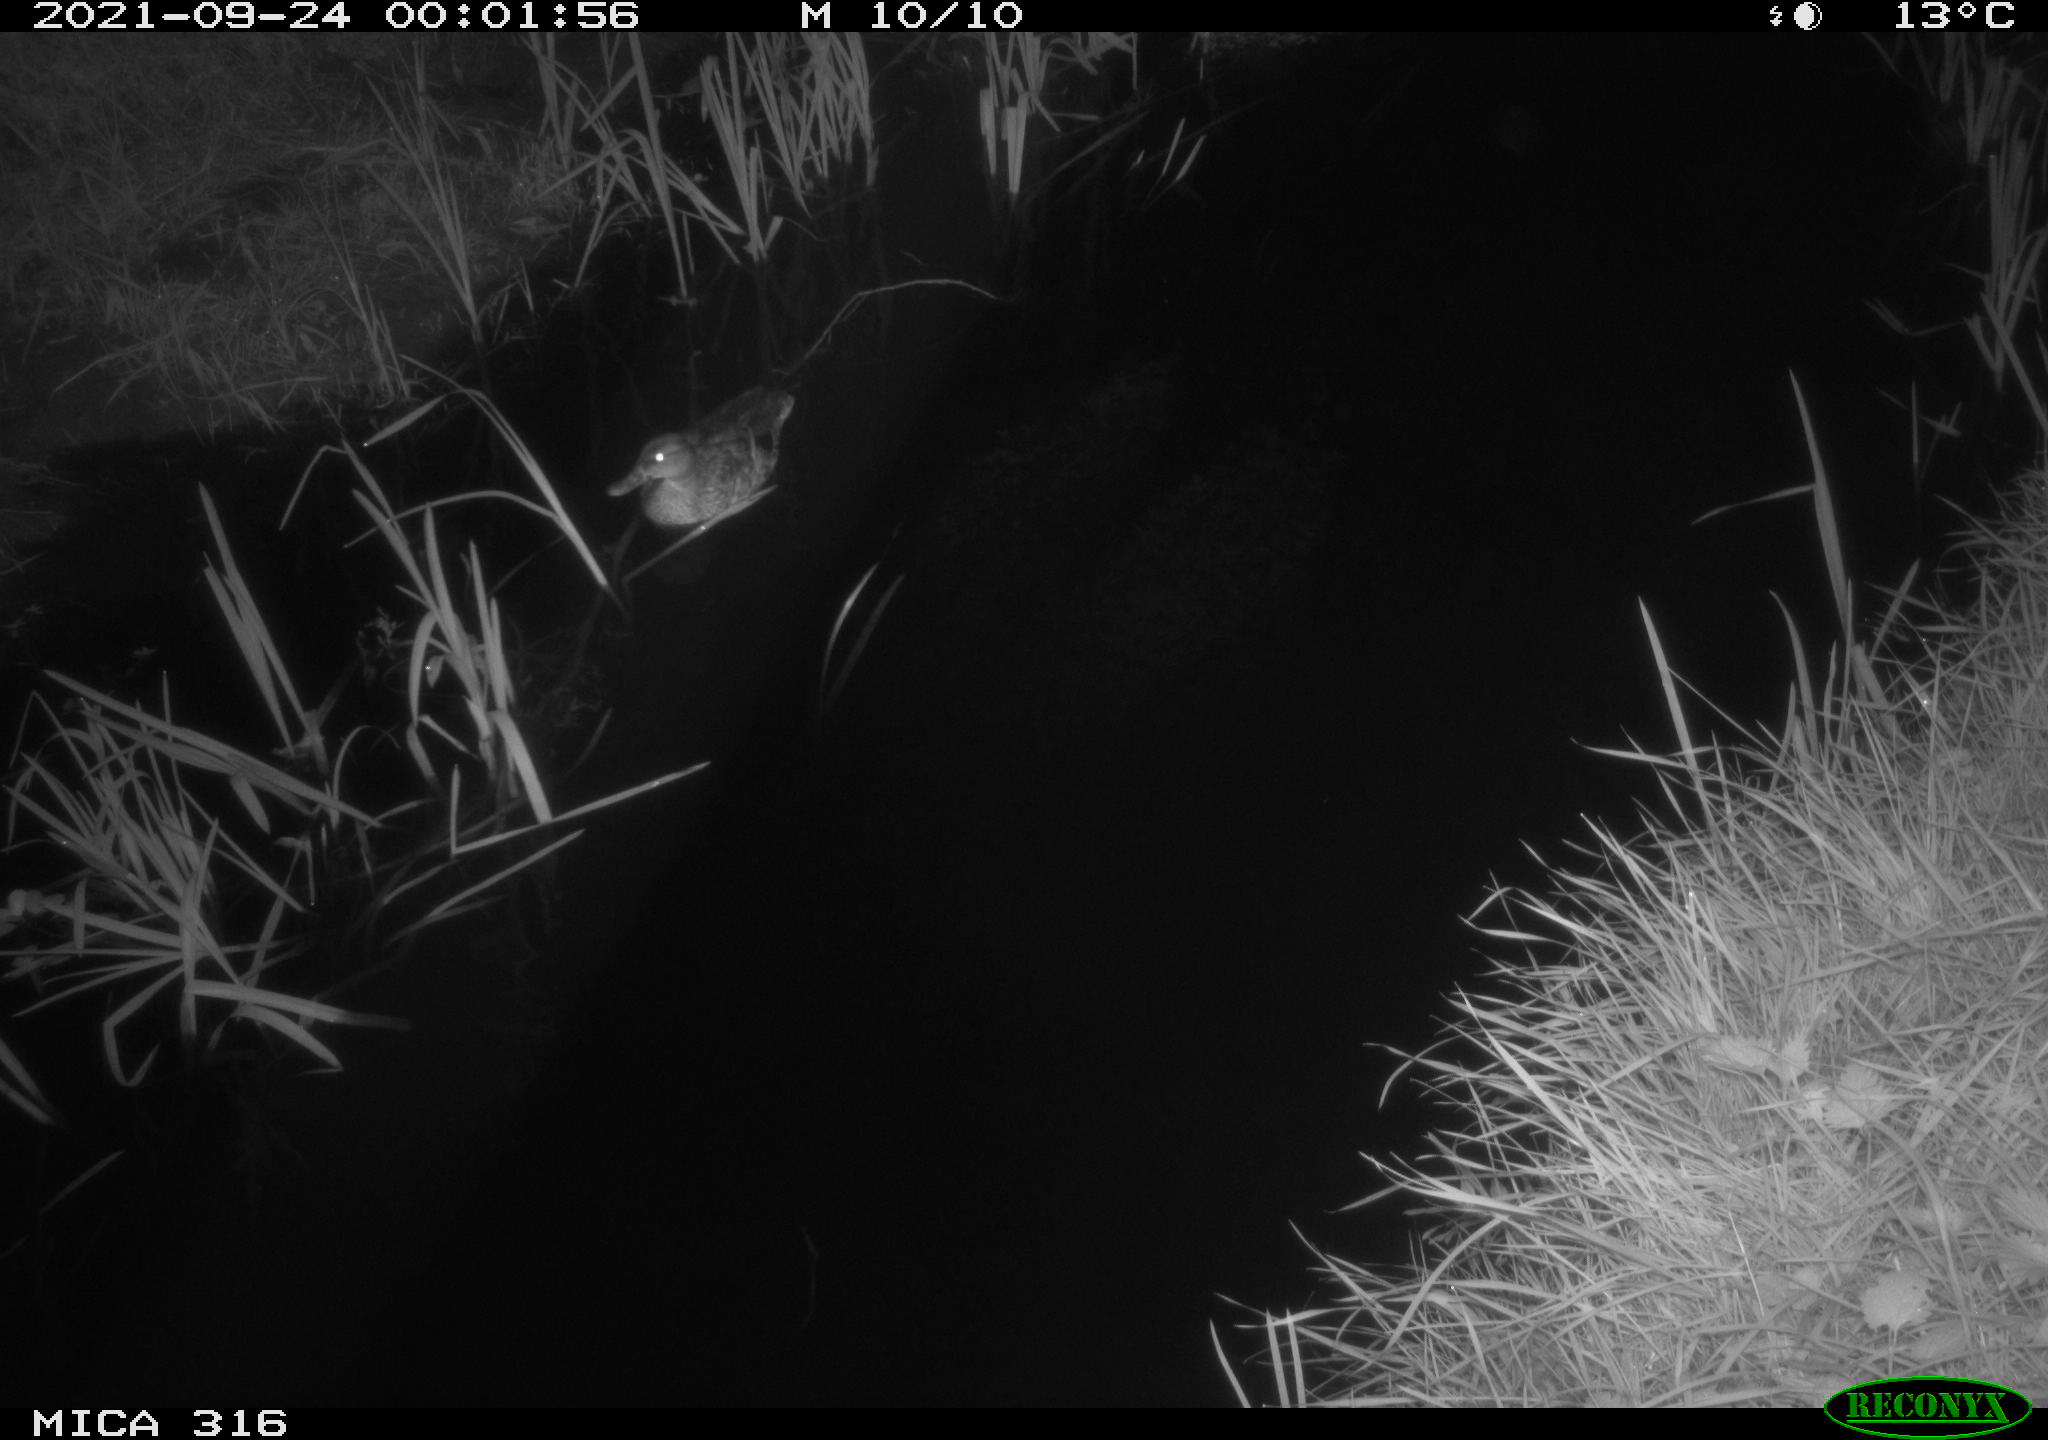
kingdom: Animalia
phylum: Chordata
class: Mammalia
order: Rodentia
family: Muridae
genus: Rattus
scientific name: Rattus norvegicus
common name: Brown rat
